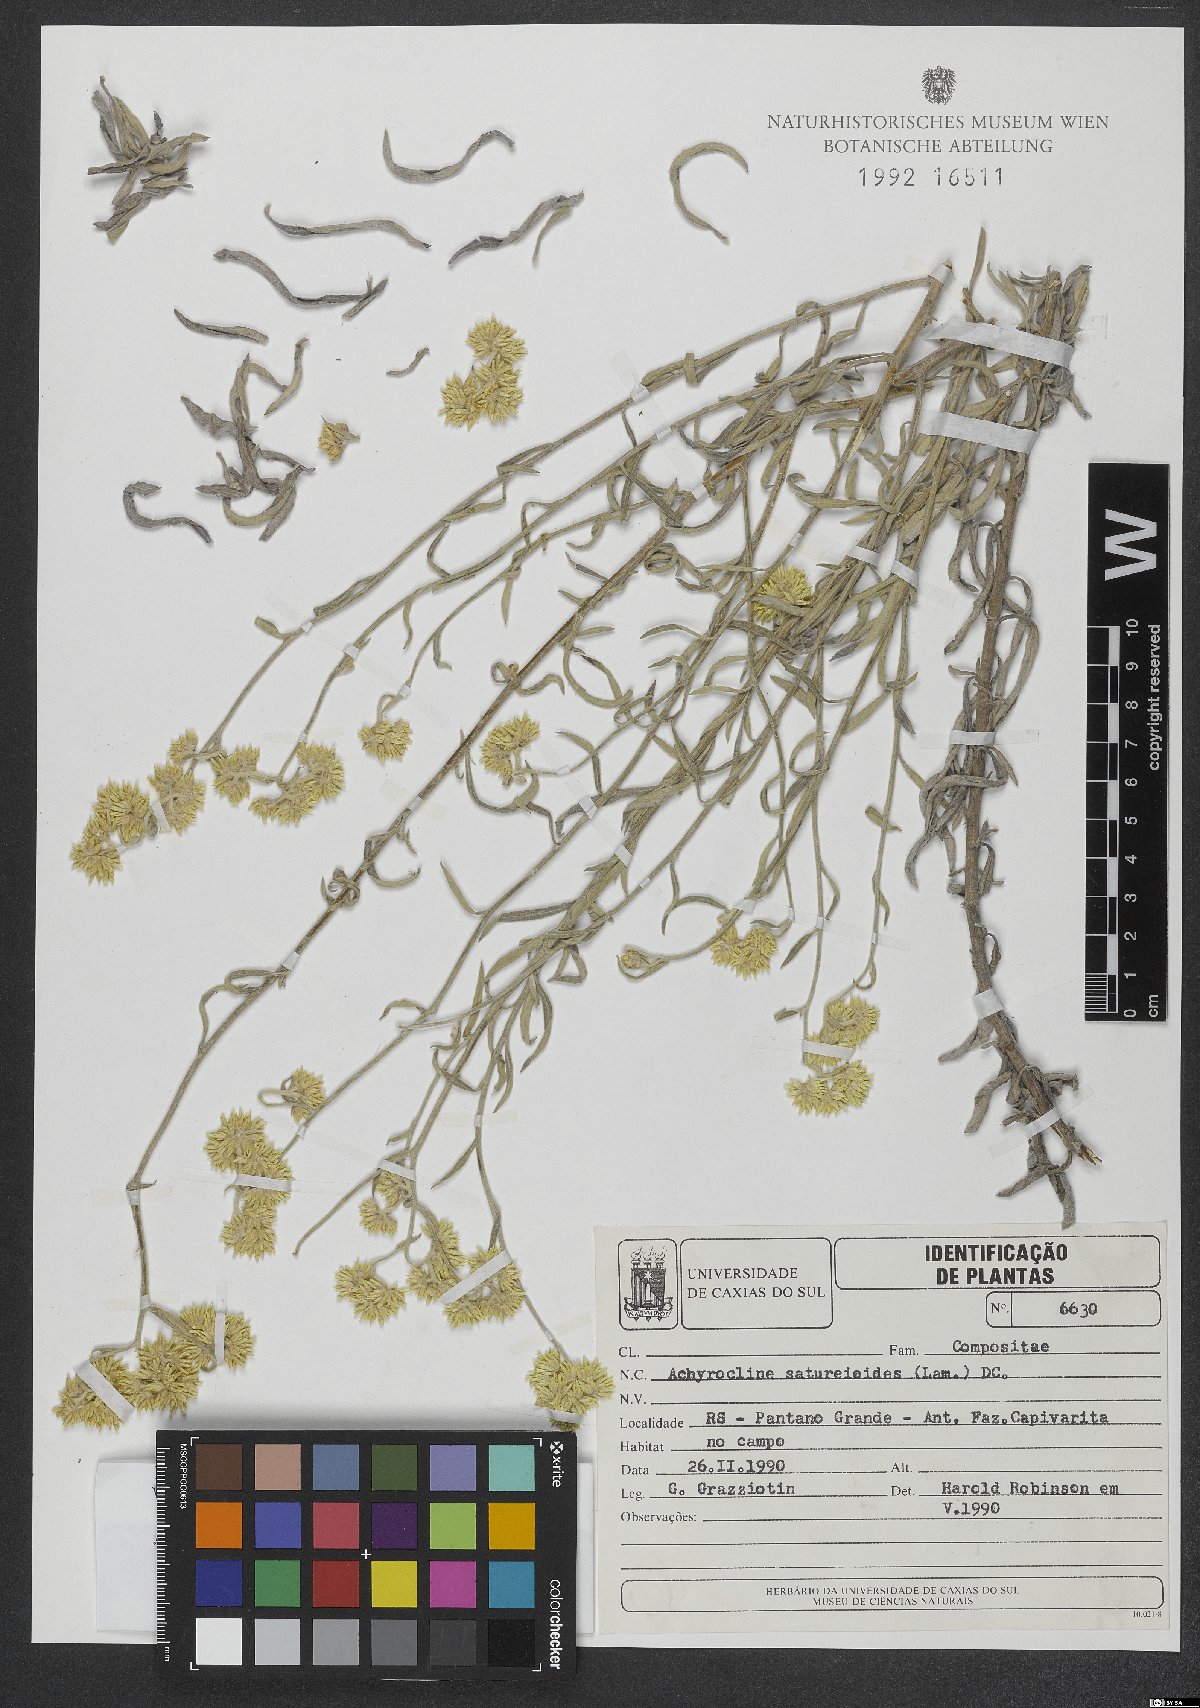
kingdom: Plantae
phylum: Tracheophyta
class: Magnoliopsida
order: Asterales
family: Asteraceae
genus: Achyrocline
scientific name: Achyrocline satureioides
